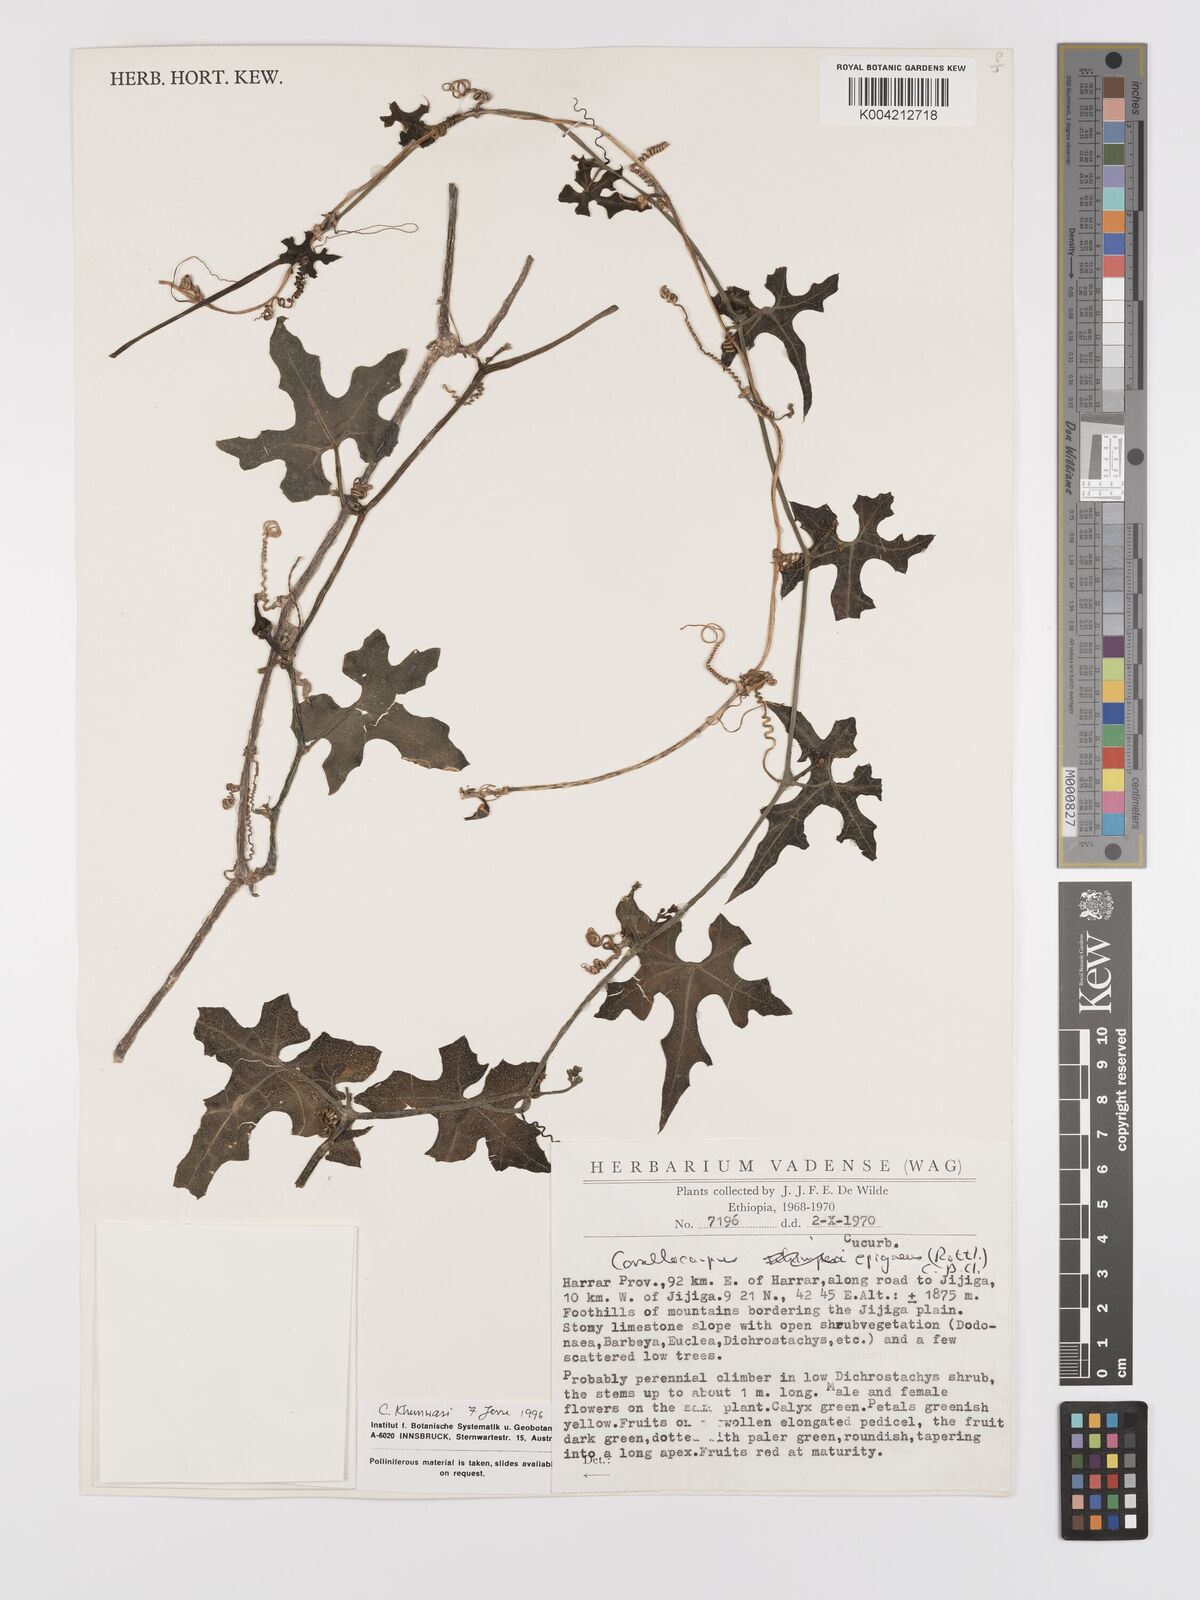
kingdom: Plantae
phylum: Tracheophyta
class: Magnoliopsida
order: Cucurbitales
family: Cucurbitaceae
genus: Corallocarpus
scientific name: Corallocarpus epigaeus
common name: Indian bryonia
